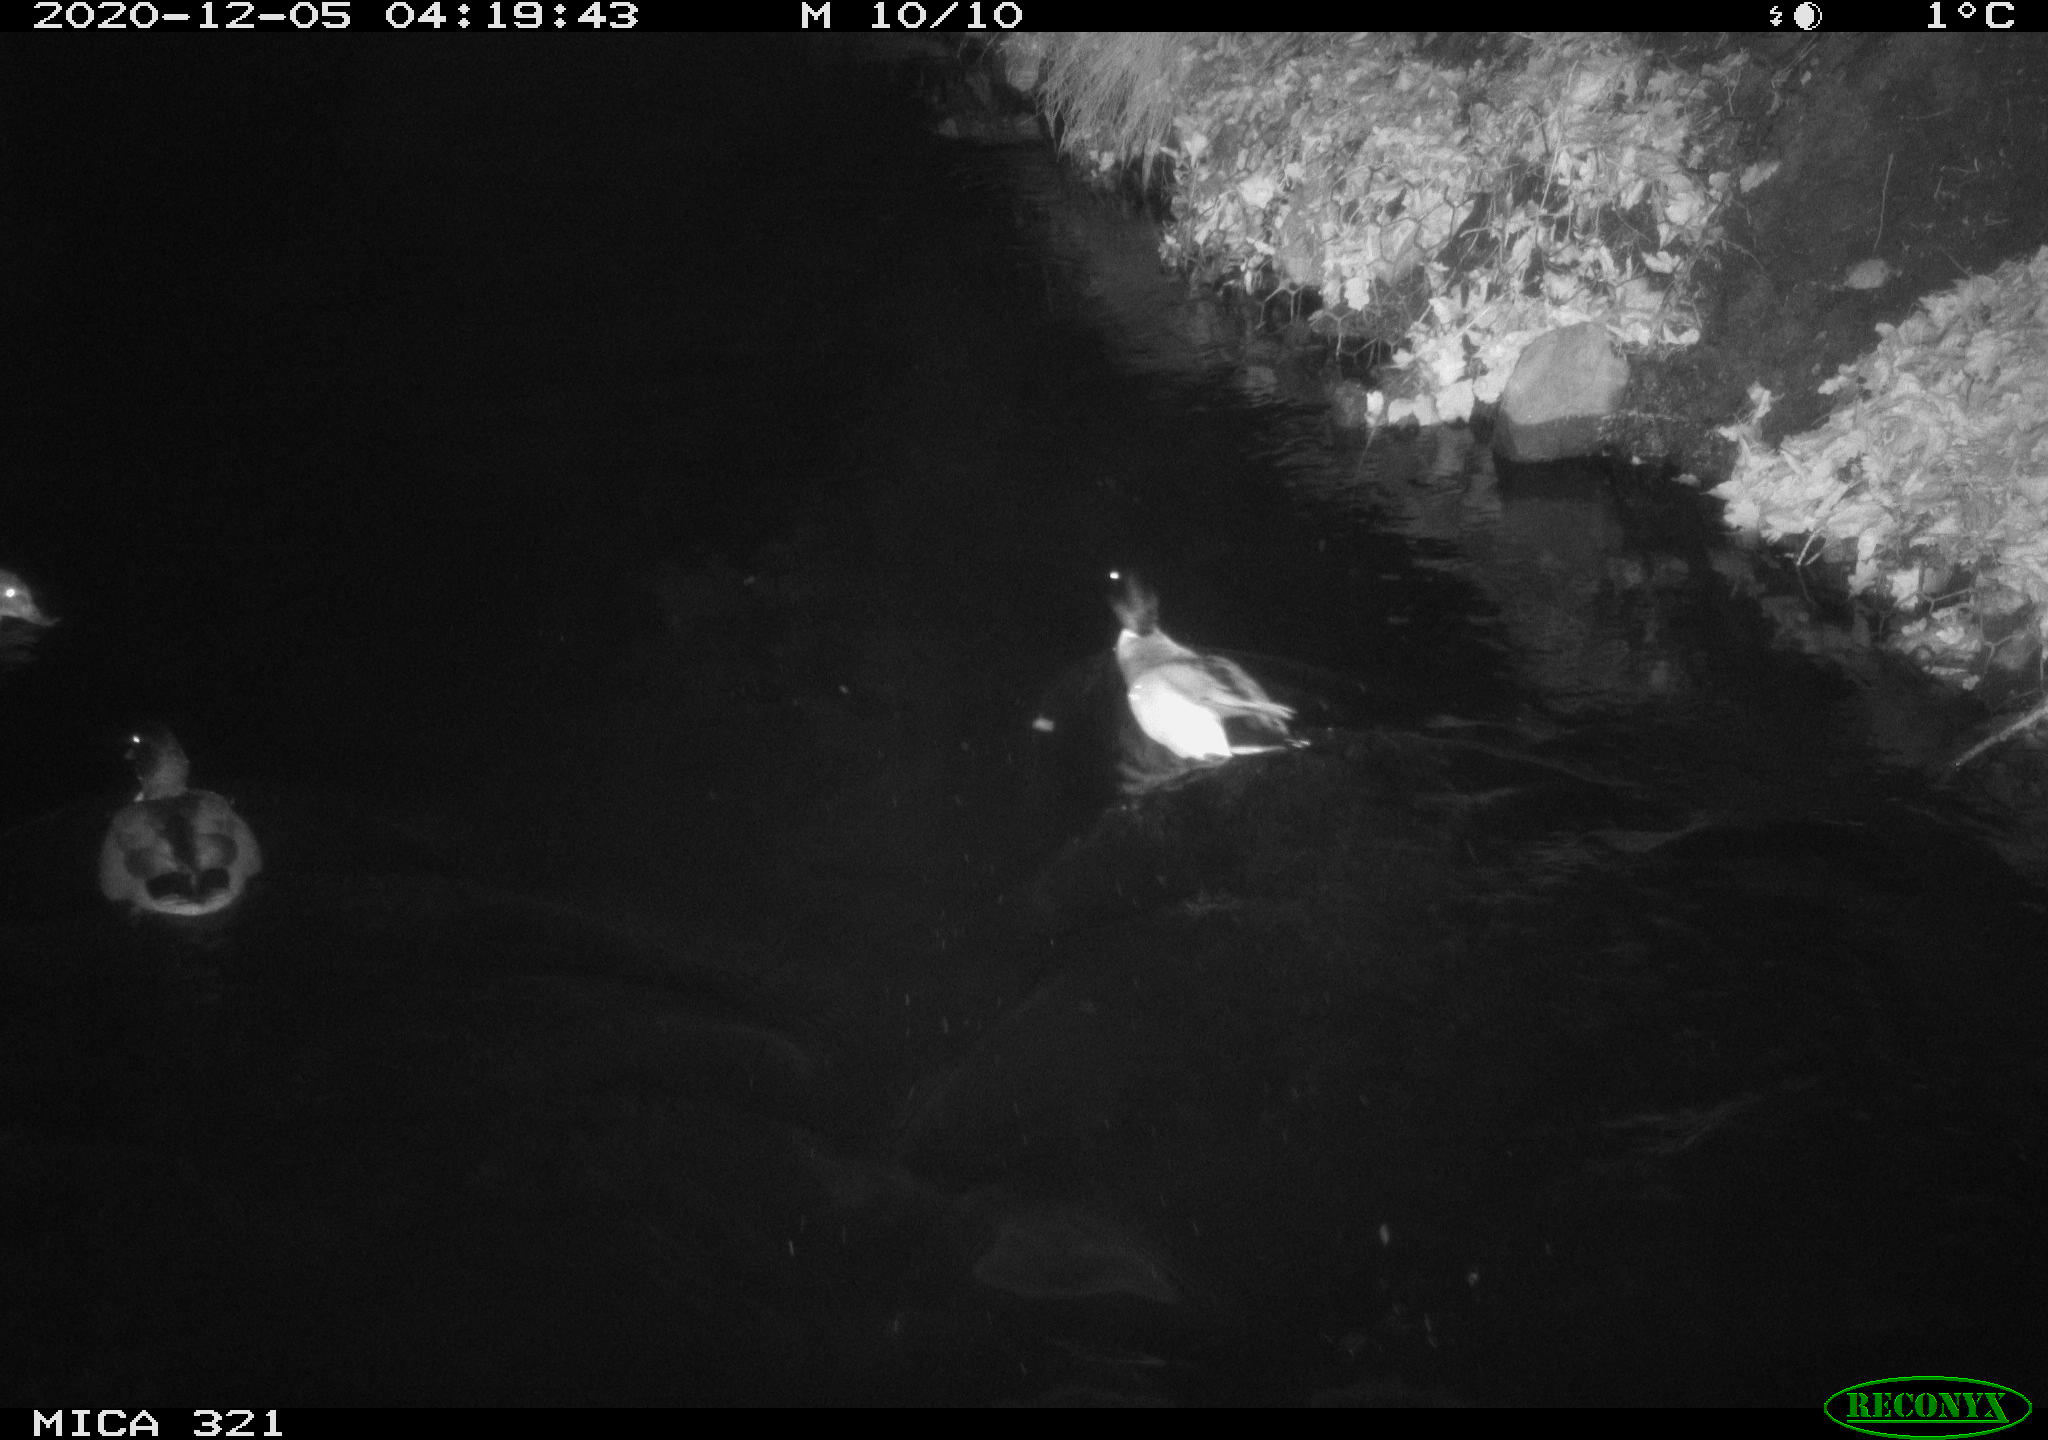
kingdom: Animalia
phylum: Chordata
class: Aves
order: Anseriformes
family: Anatidae
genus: Anas
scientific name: Anas platyrhynchos
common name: Mallard
